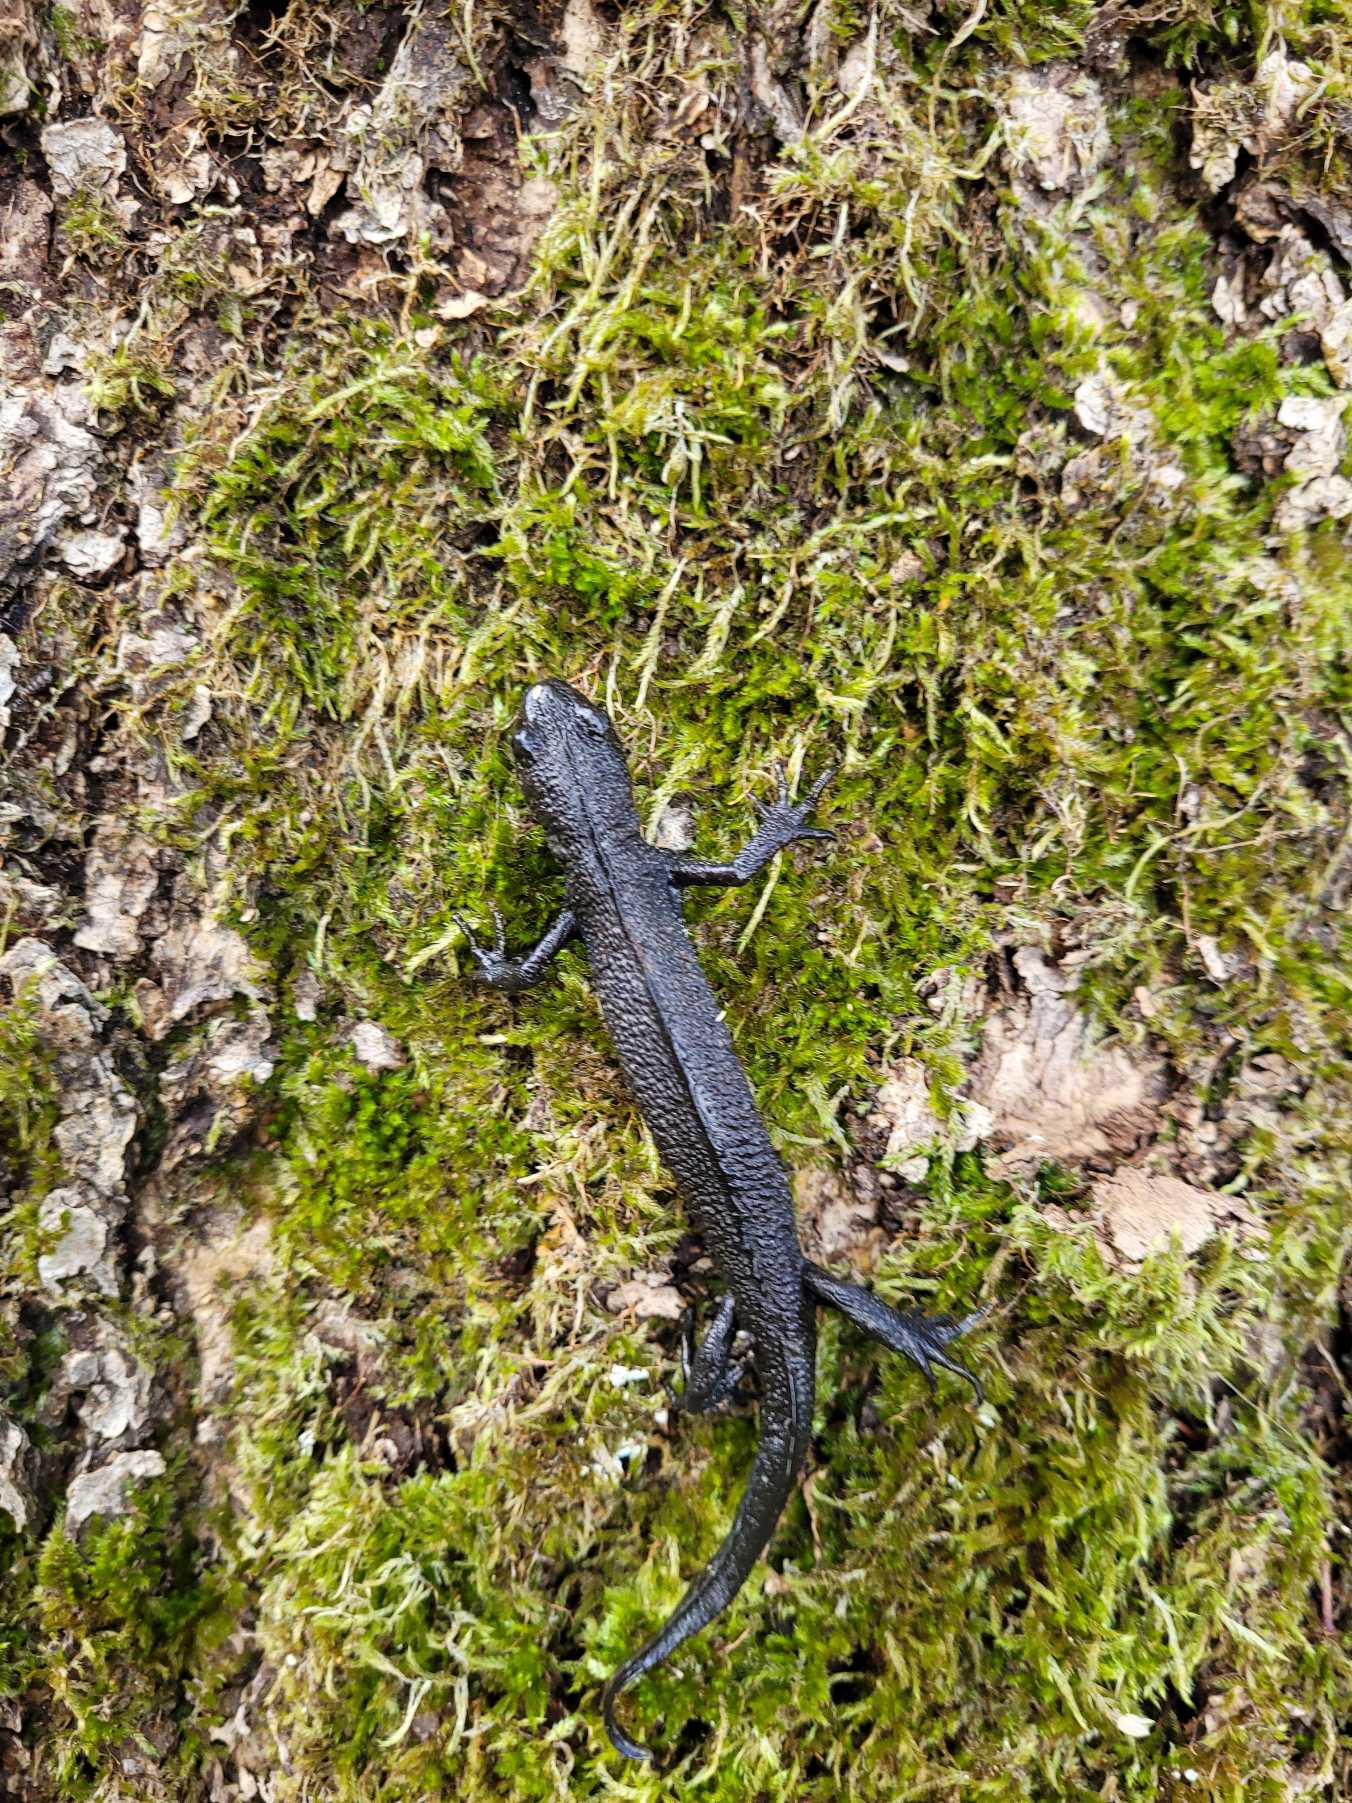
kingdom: Animalia
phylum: Chordata
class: Amphibia
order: Caudata
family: Salamandridae
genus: Triturus
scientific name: Triturus cristatus
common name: Stor vandsalamander
